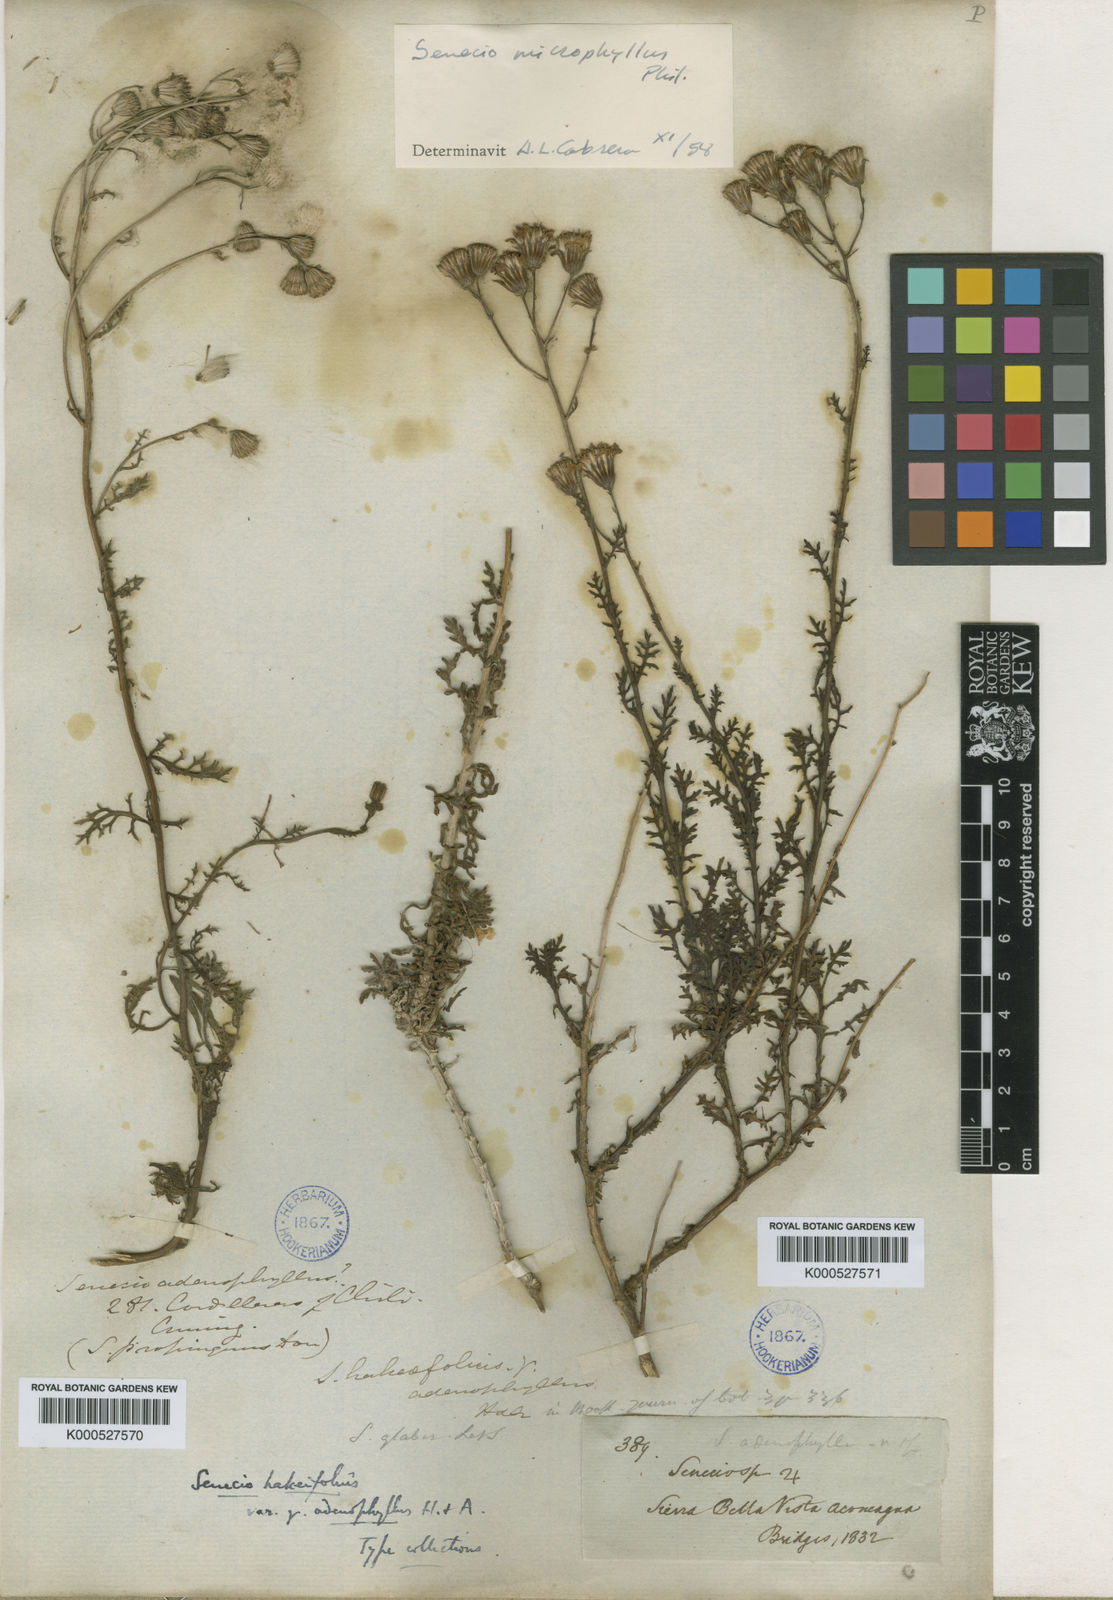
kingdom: Plantae
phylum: Tracheophyta
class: Magnoliopsida
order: Asterales
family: Asteraceae
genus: Senecio
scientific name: Senecio hakeifolius
